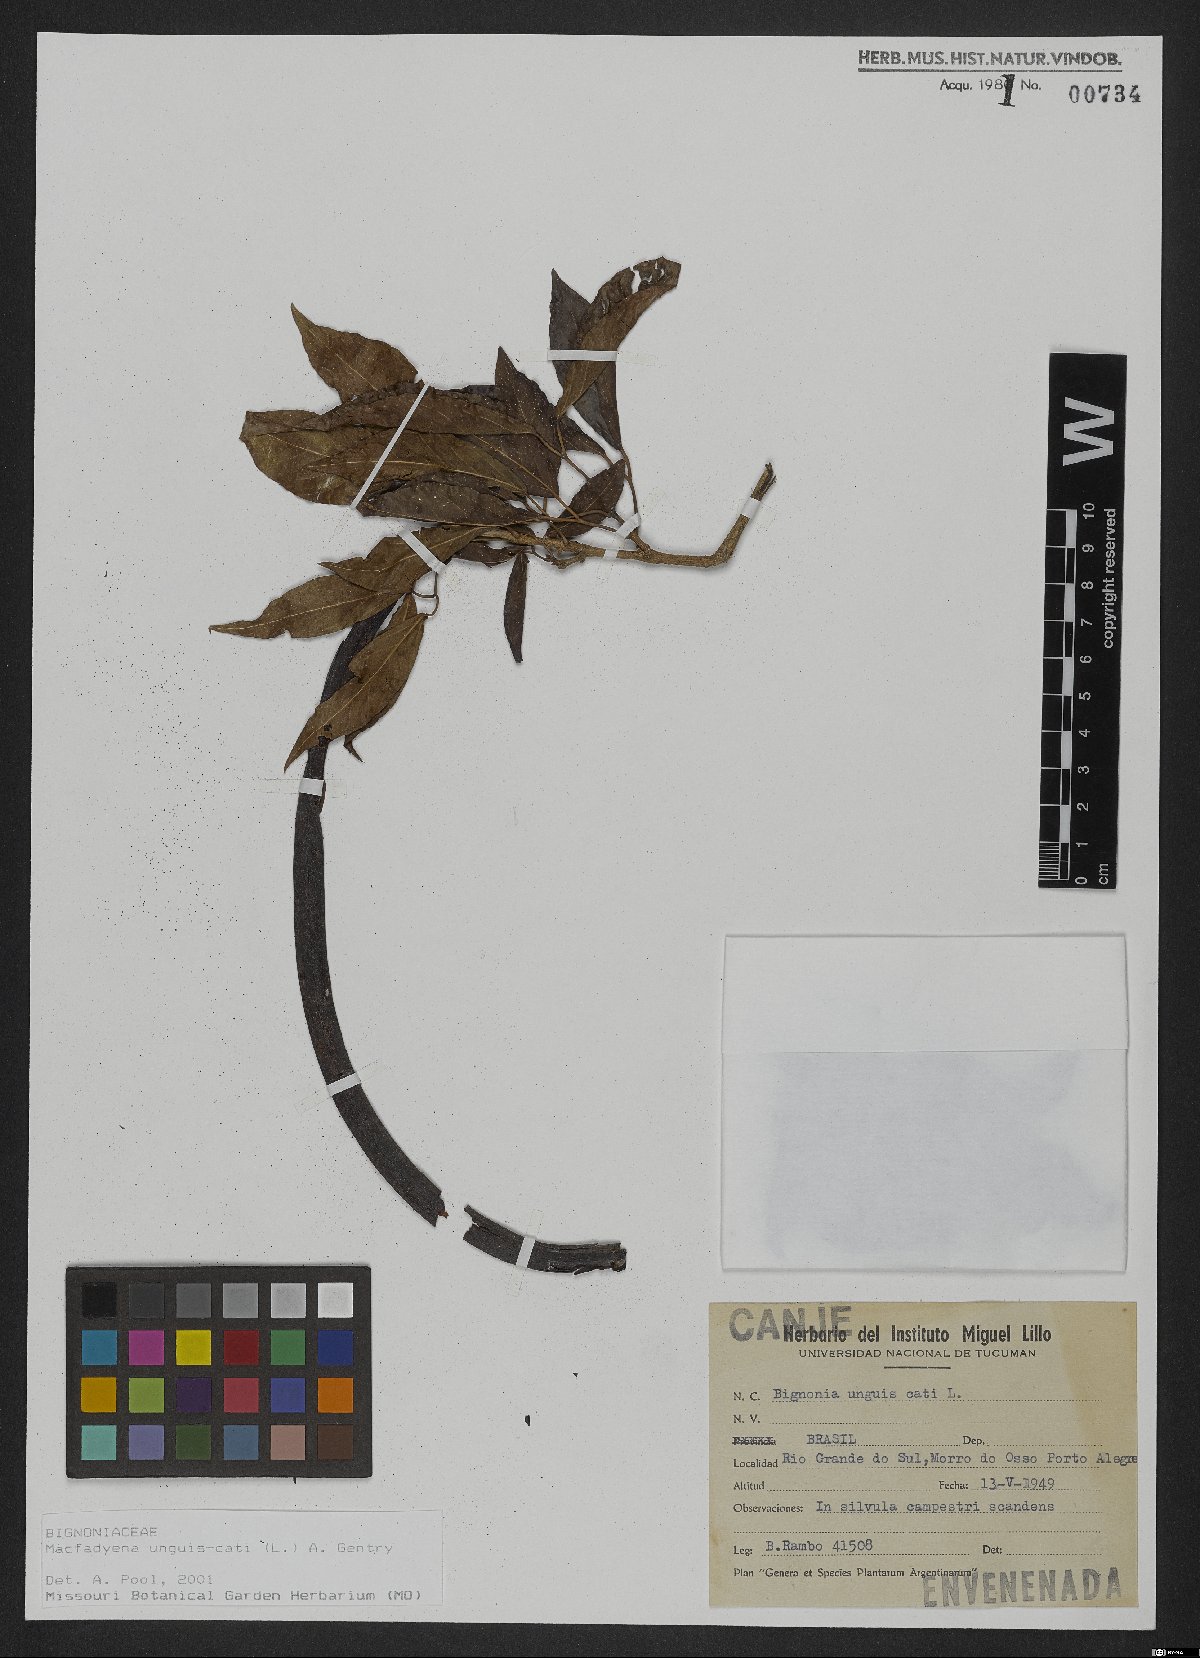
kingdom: Plantae
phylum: Tracheophyta
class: Magnoliopsida
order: Lamiales
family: Bignoniaceae
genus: Dolichandra
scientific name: Dolichandra unguis-cati
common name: Catclaw vine
